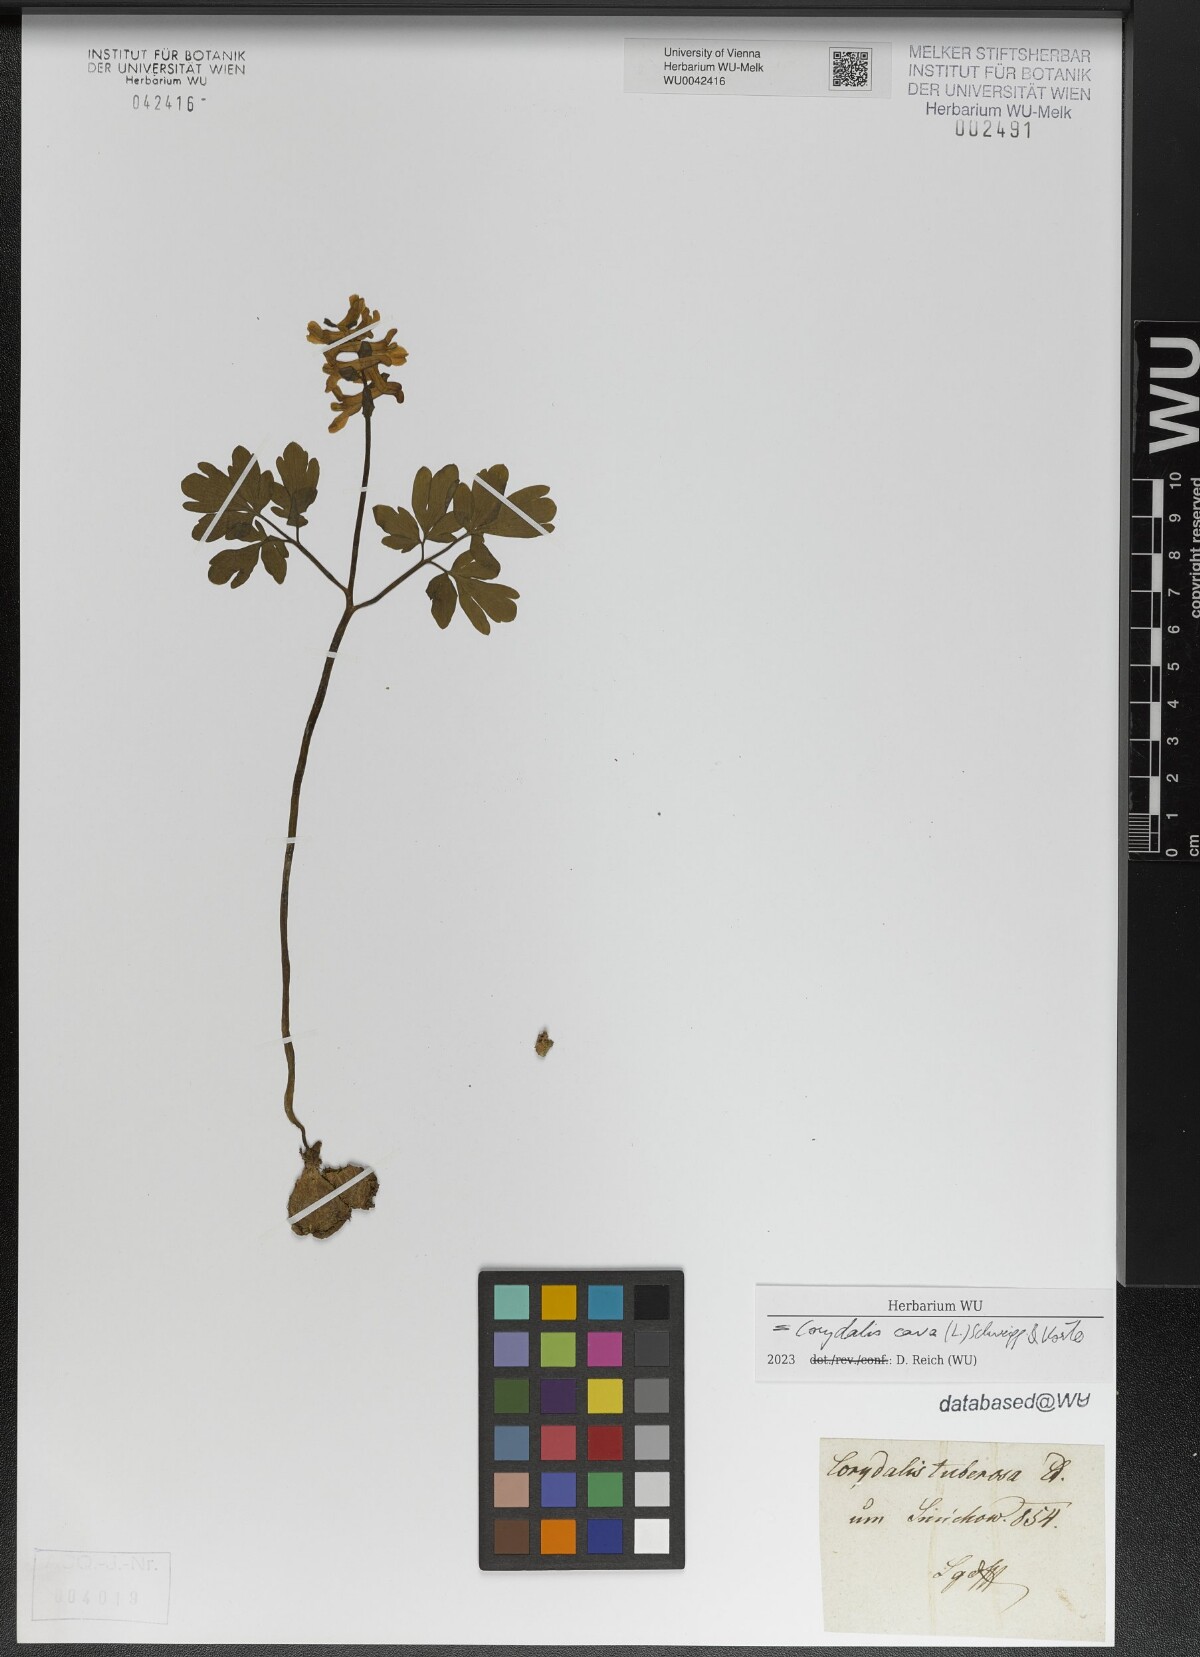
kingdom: Plantae
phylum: Tracheophyta
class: Magnoliopsida
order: Ranunculales
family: Papaveraceae
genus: Corydalis
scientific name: Corydalis cava
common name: Hollowroot
